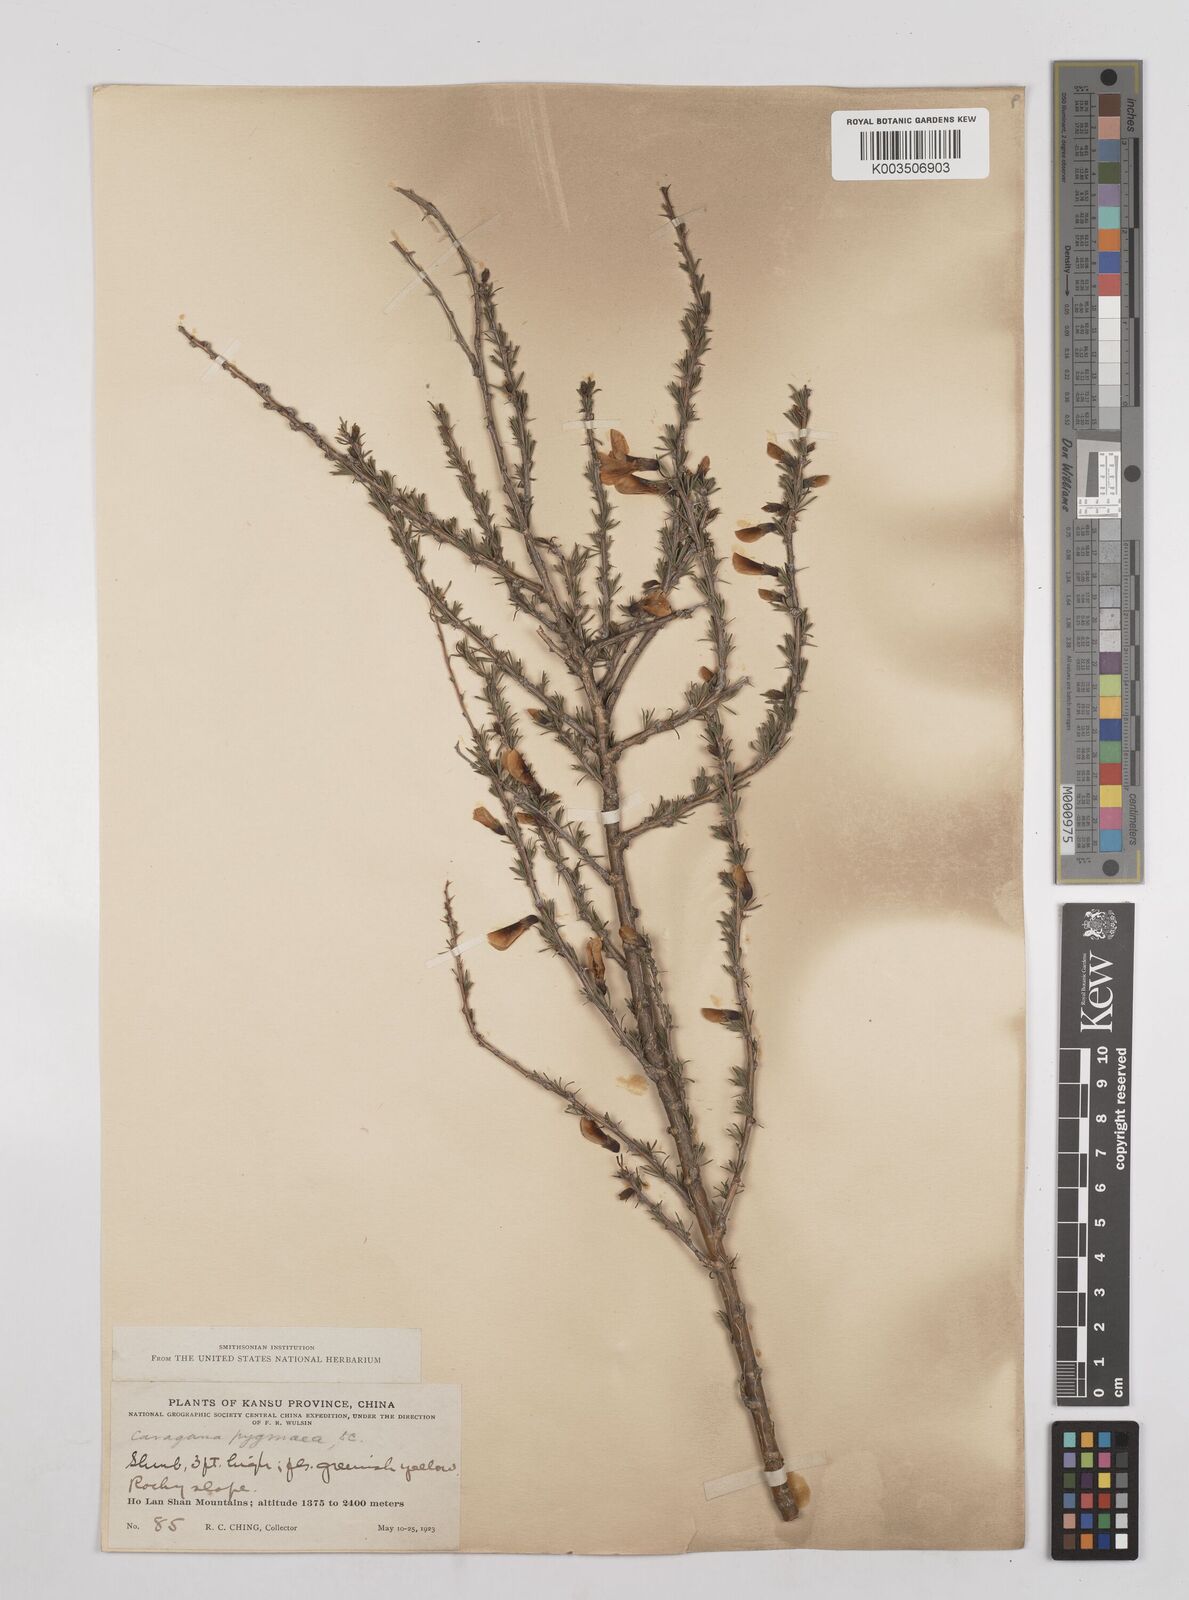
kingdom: Plantae
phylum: Tracheophyta
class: Magnoliopsida
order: Fabales
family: Fabaceae
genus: Caragana
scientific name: Caragana pygmaea
